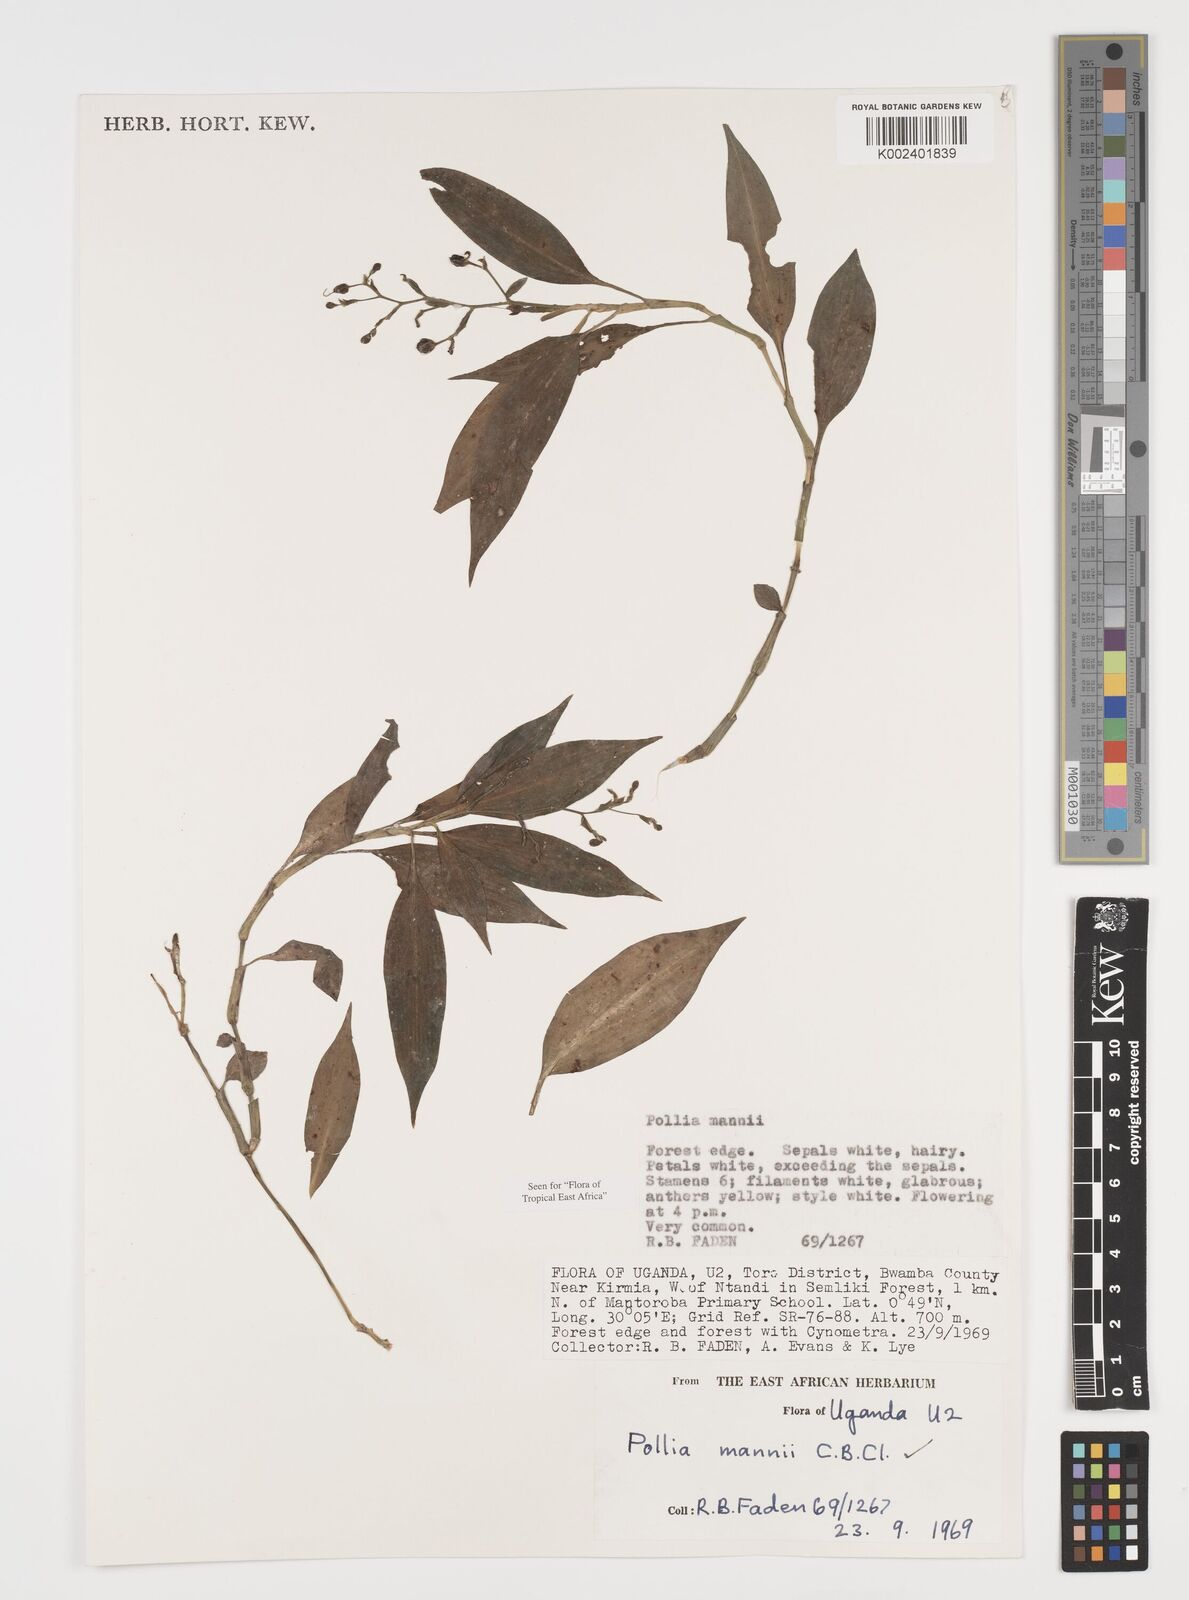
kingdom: Plantae
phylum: Tracheophyta
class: Liliopsida
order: Commelinales
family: Commelinaceae
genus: Pollia
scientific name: Pollia mannii
